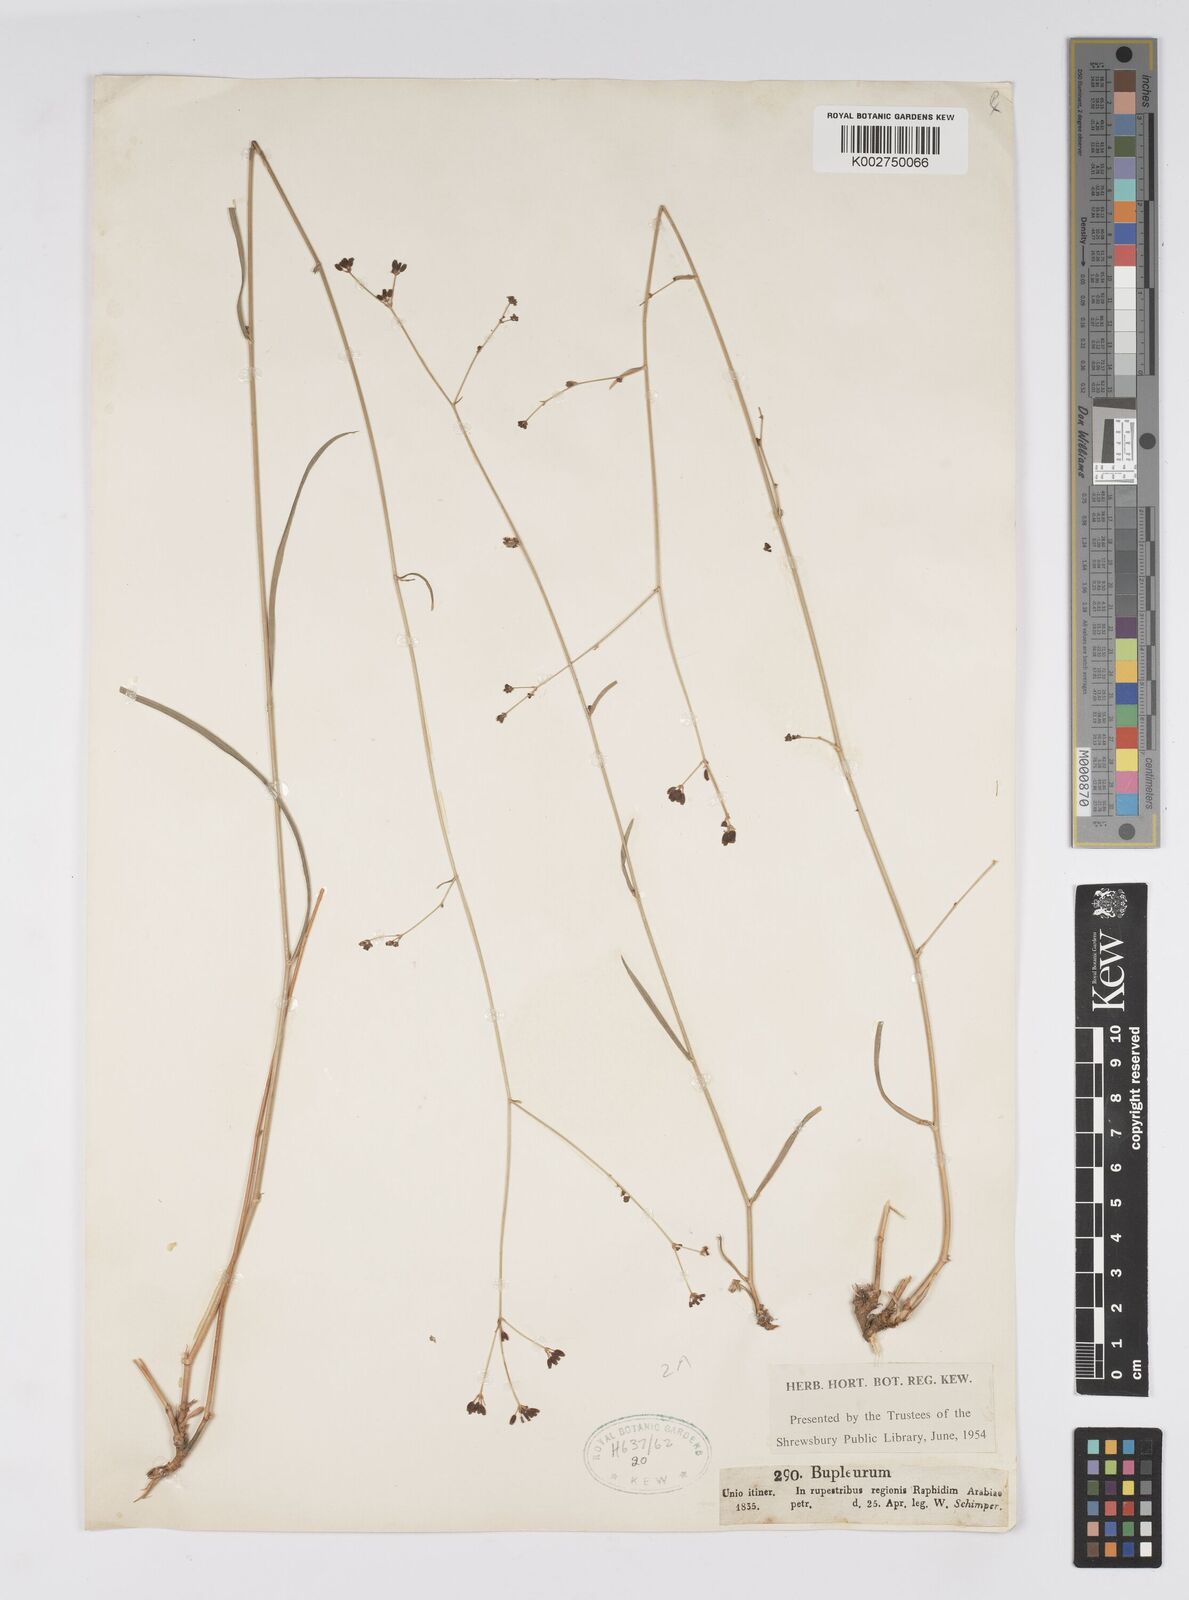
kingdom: Plantae
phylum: Tracheophyta
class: Magnoliopsida
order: Apiales
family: Apiaceae
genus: Bupleurum
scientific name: Bupleurum
